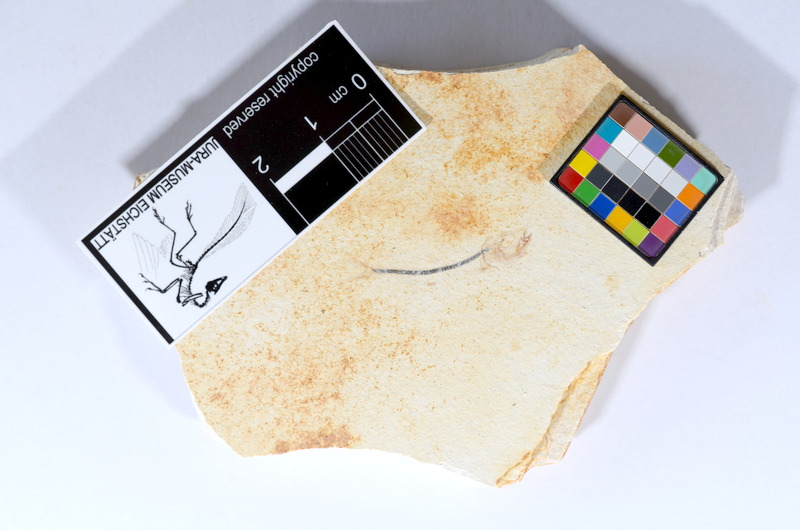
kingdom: Animalia
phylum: Chordata
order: Salmoniformes
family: Orthogonikleithridae
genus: Orthogonikleithrus
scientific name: Orthogonikleithrus hoelli
